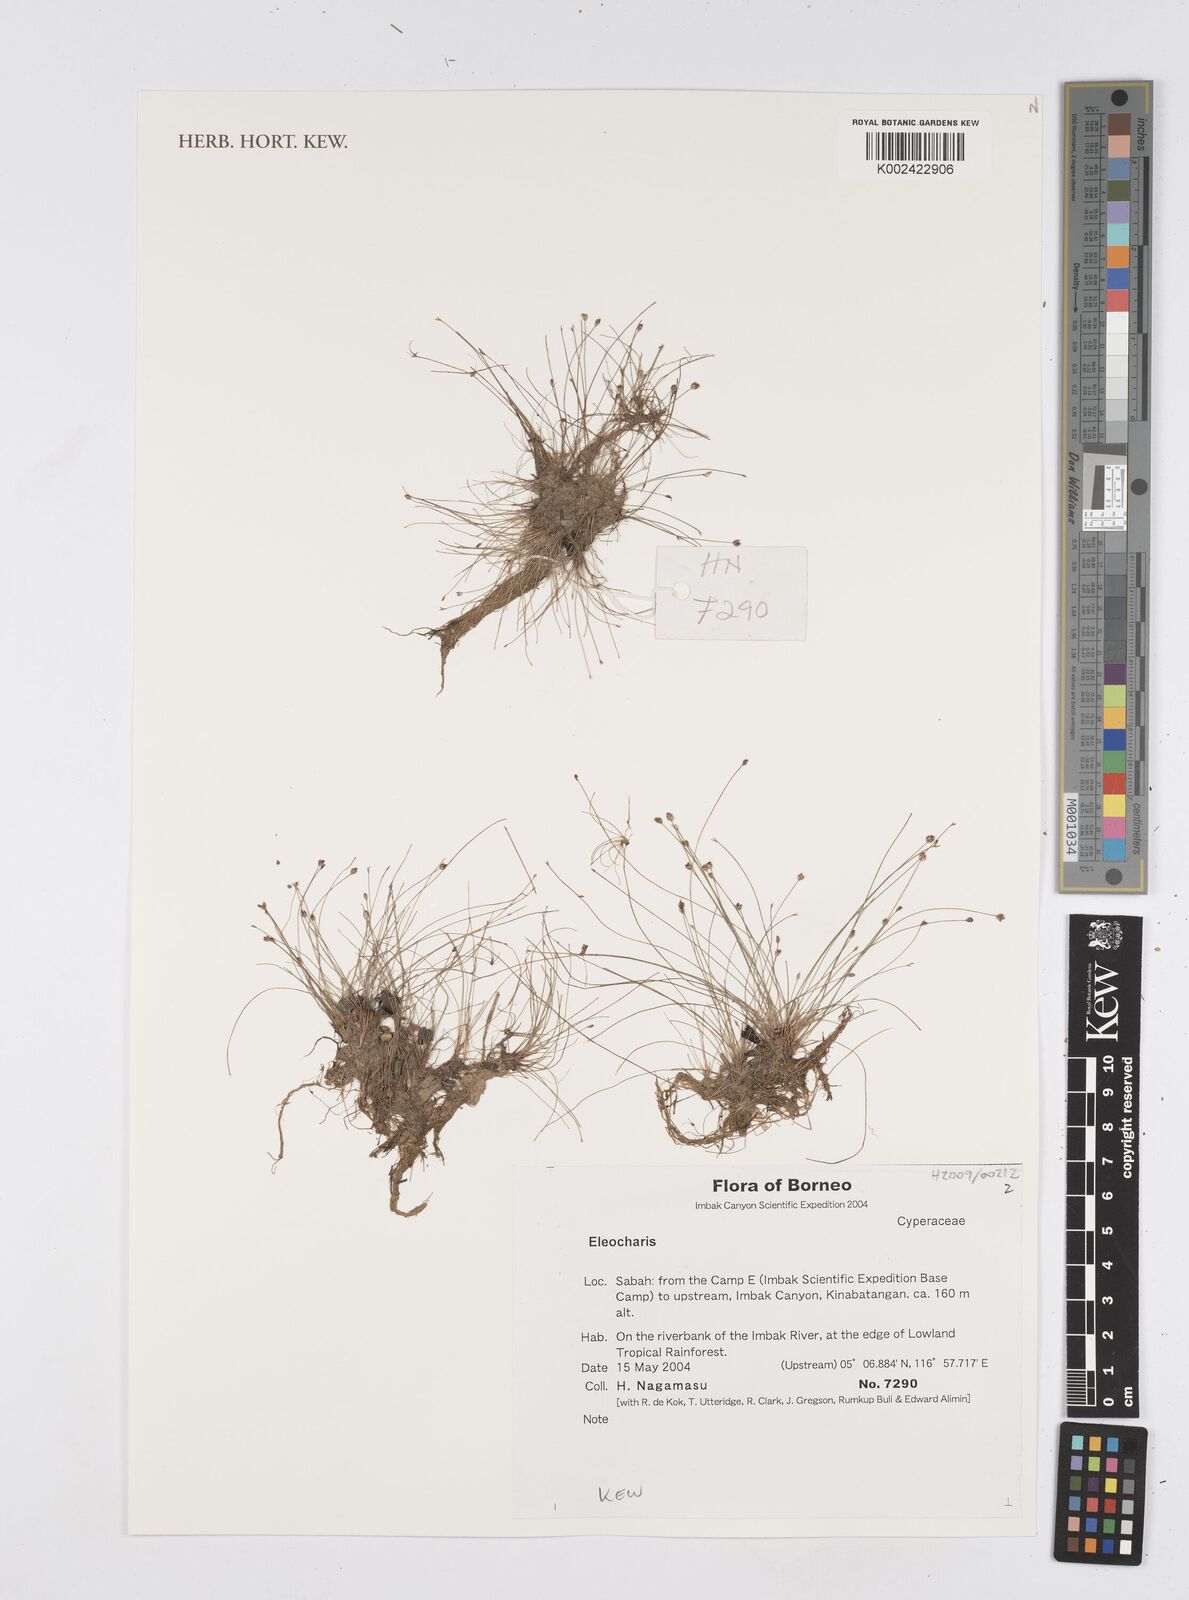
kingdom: Plantae
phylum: Tracheophyta
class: Liliopsida
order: Poales
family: Cyperaceae
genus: Eleocharis
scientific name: Eleocharis
